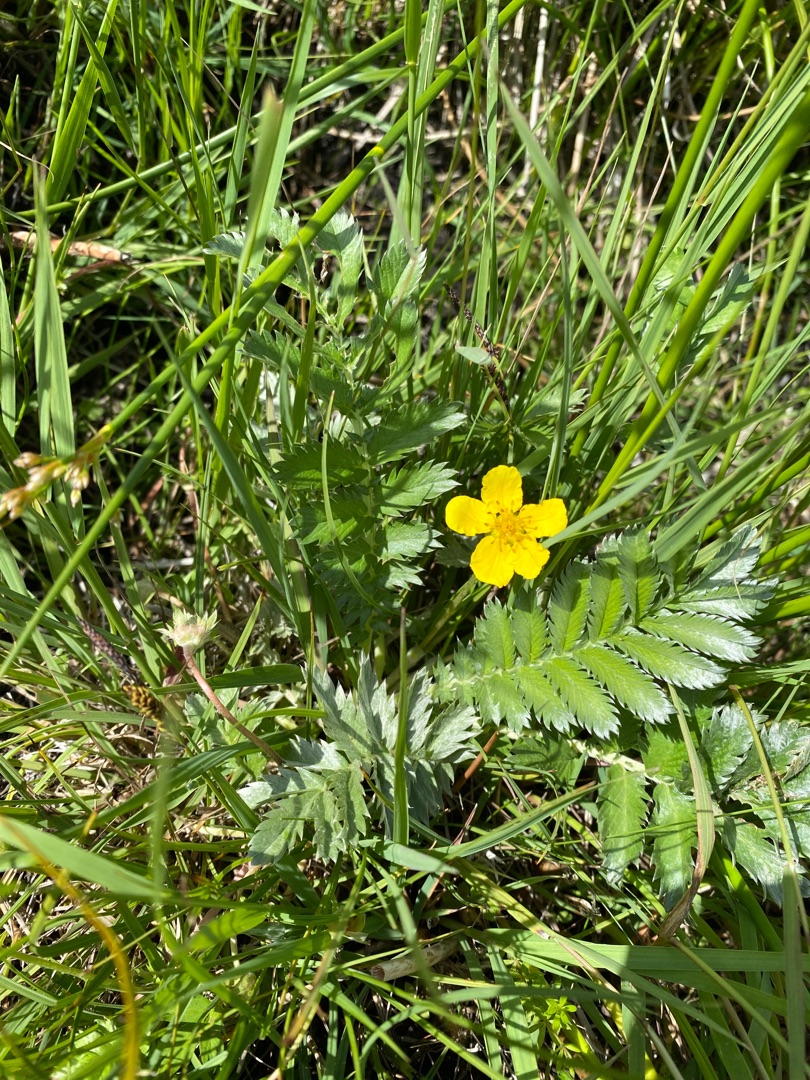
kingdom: Plantae
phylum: Tracheophyta
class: Magnoliopsida
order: Rosales
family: Rosaceae
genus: Argentina
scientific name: Argentina anserina
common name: Gåsepotentil
